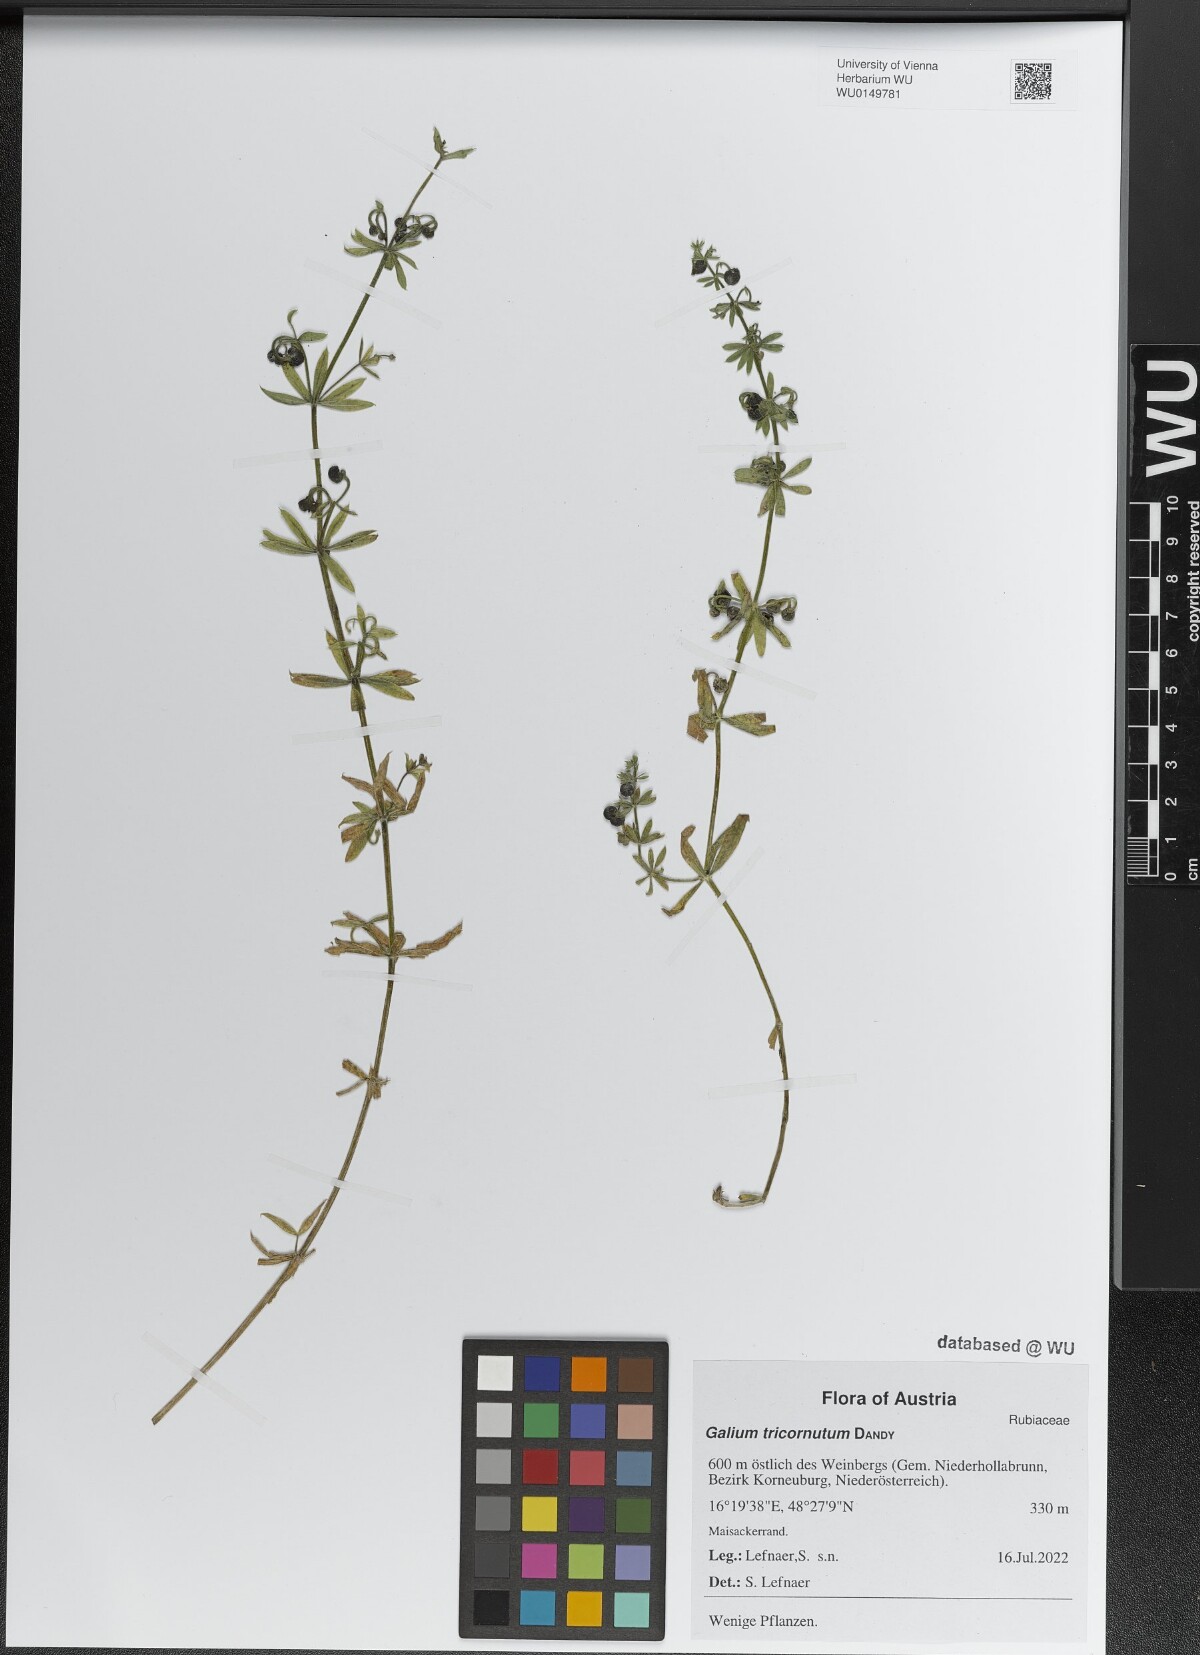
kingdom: Plantae
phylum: Tracheophyta
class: Magnoliopsida
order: Gentianales
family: Rubiaceae
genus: Galium
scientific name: Galium tricornutum
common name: Corn cleavers
